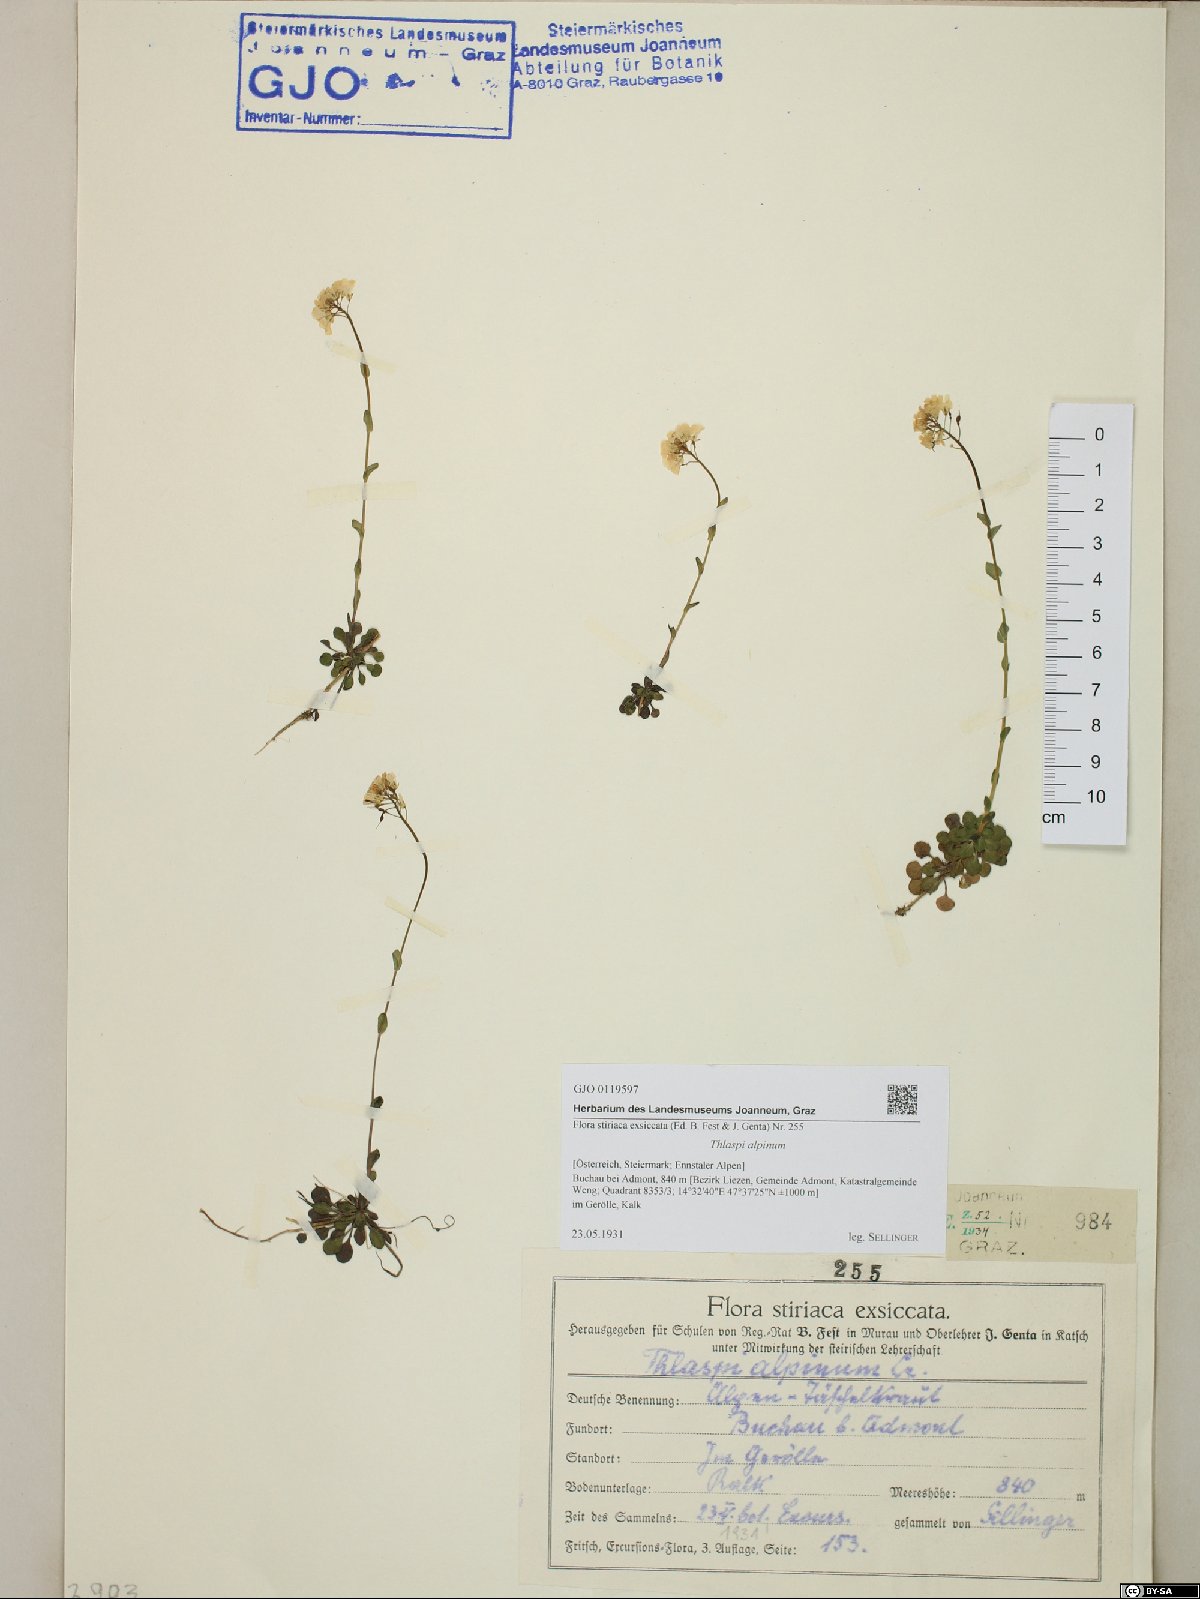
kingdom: Plantae
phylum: Tracheophyta
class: Magnoliopsida
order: Brassicales
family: Brassicaceae
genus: Noccaea
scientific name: Noccaea alpestris
